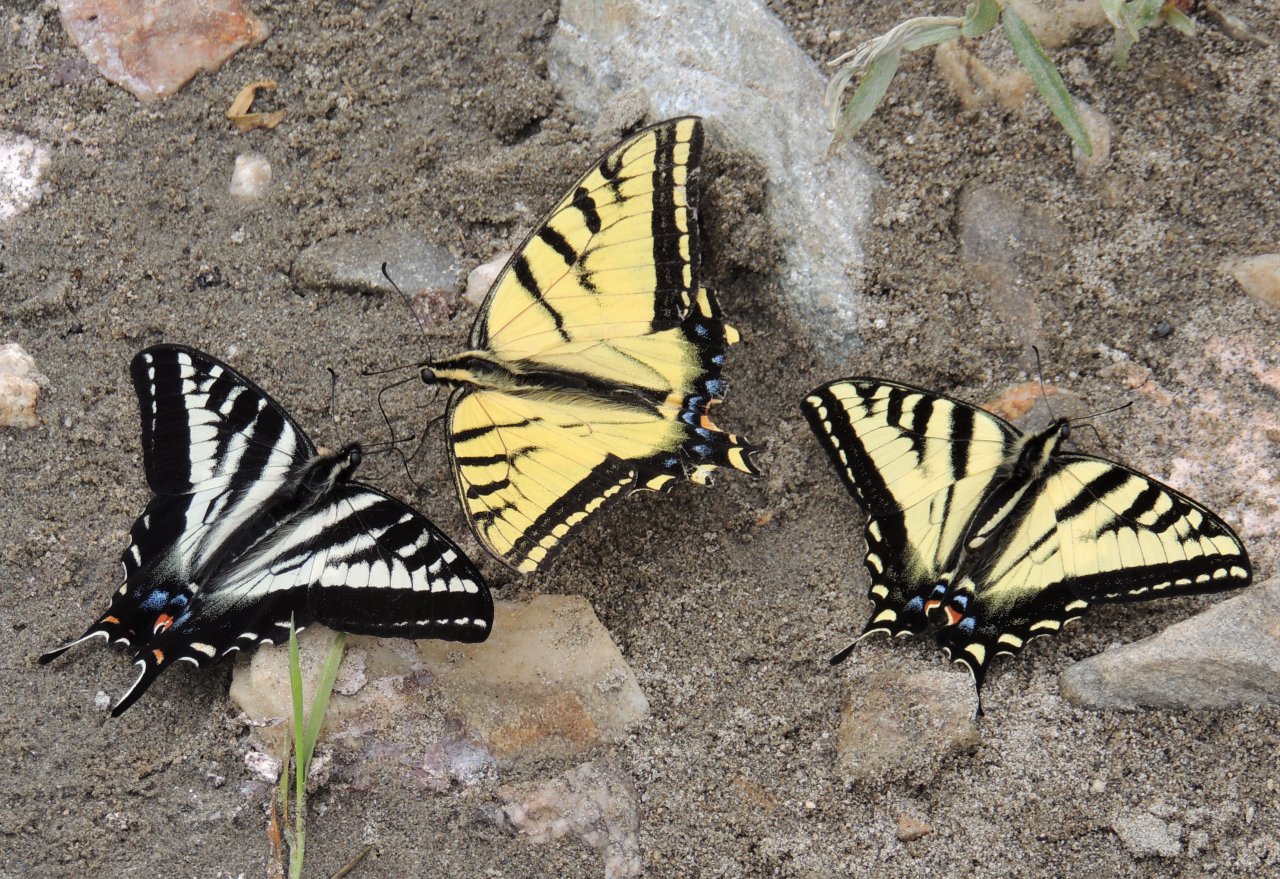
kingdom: Animalia
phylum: Arthropoda
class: Insecta
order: Lepidoptera
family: Papilionidae
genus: Papilio
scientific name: Papilio multicaudata
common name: Two-tailed Swallowtail
